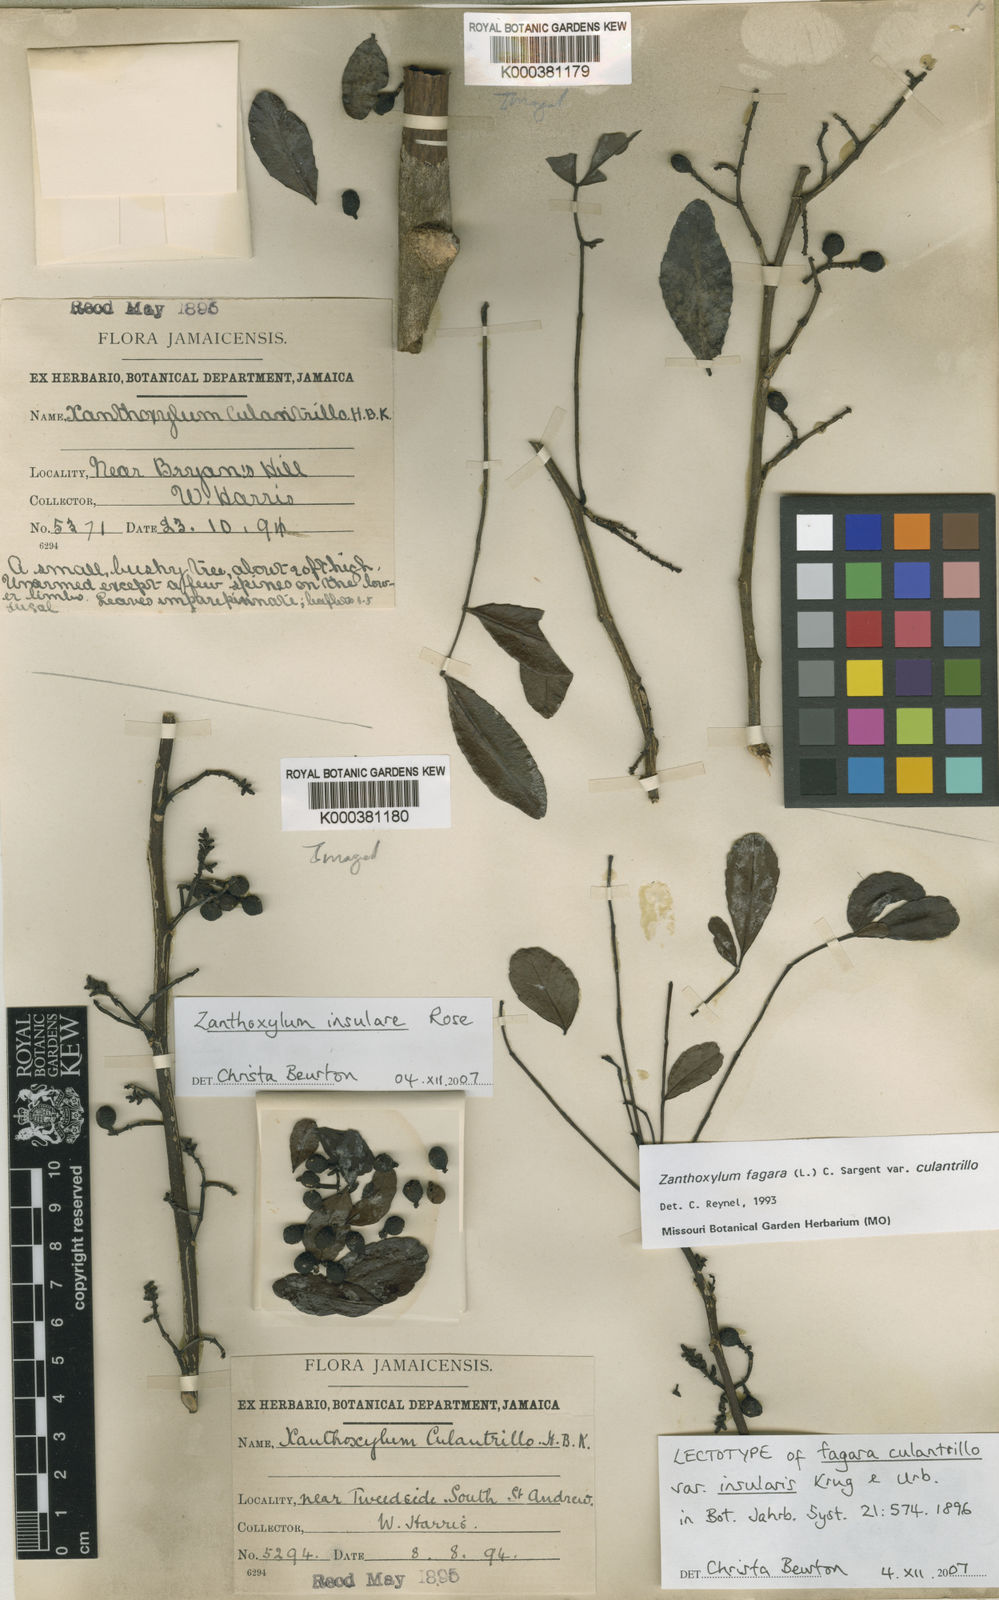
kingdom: Plantae
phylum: Tracheophyta
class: Magnoliopsida
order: Sapindales
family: Rutaceae
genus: Zanthoxylum
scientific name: Zanthoxylum insulare
